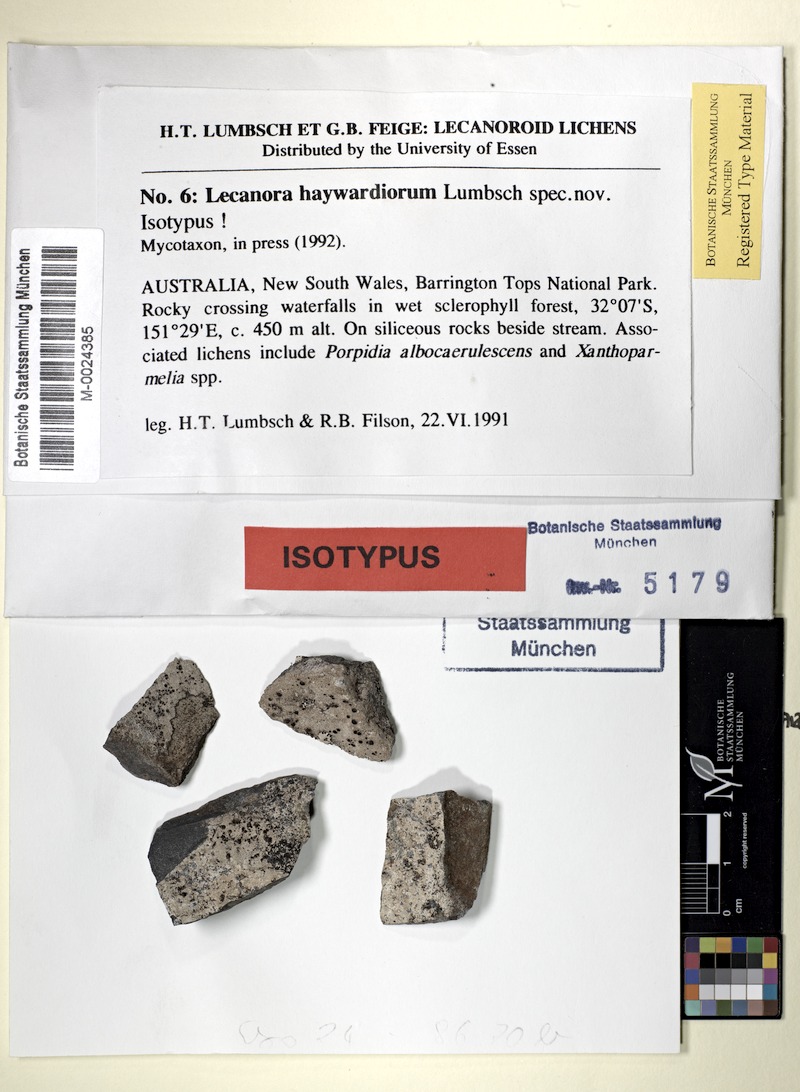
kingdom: Fungi
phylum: Ascomycota
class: Lecanoromycetes
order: Lecideales
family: Lecideaceae
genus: Porpidia
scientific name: Porpidia albocaerulescens
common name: Smokey-eyed boulder lichen
